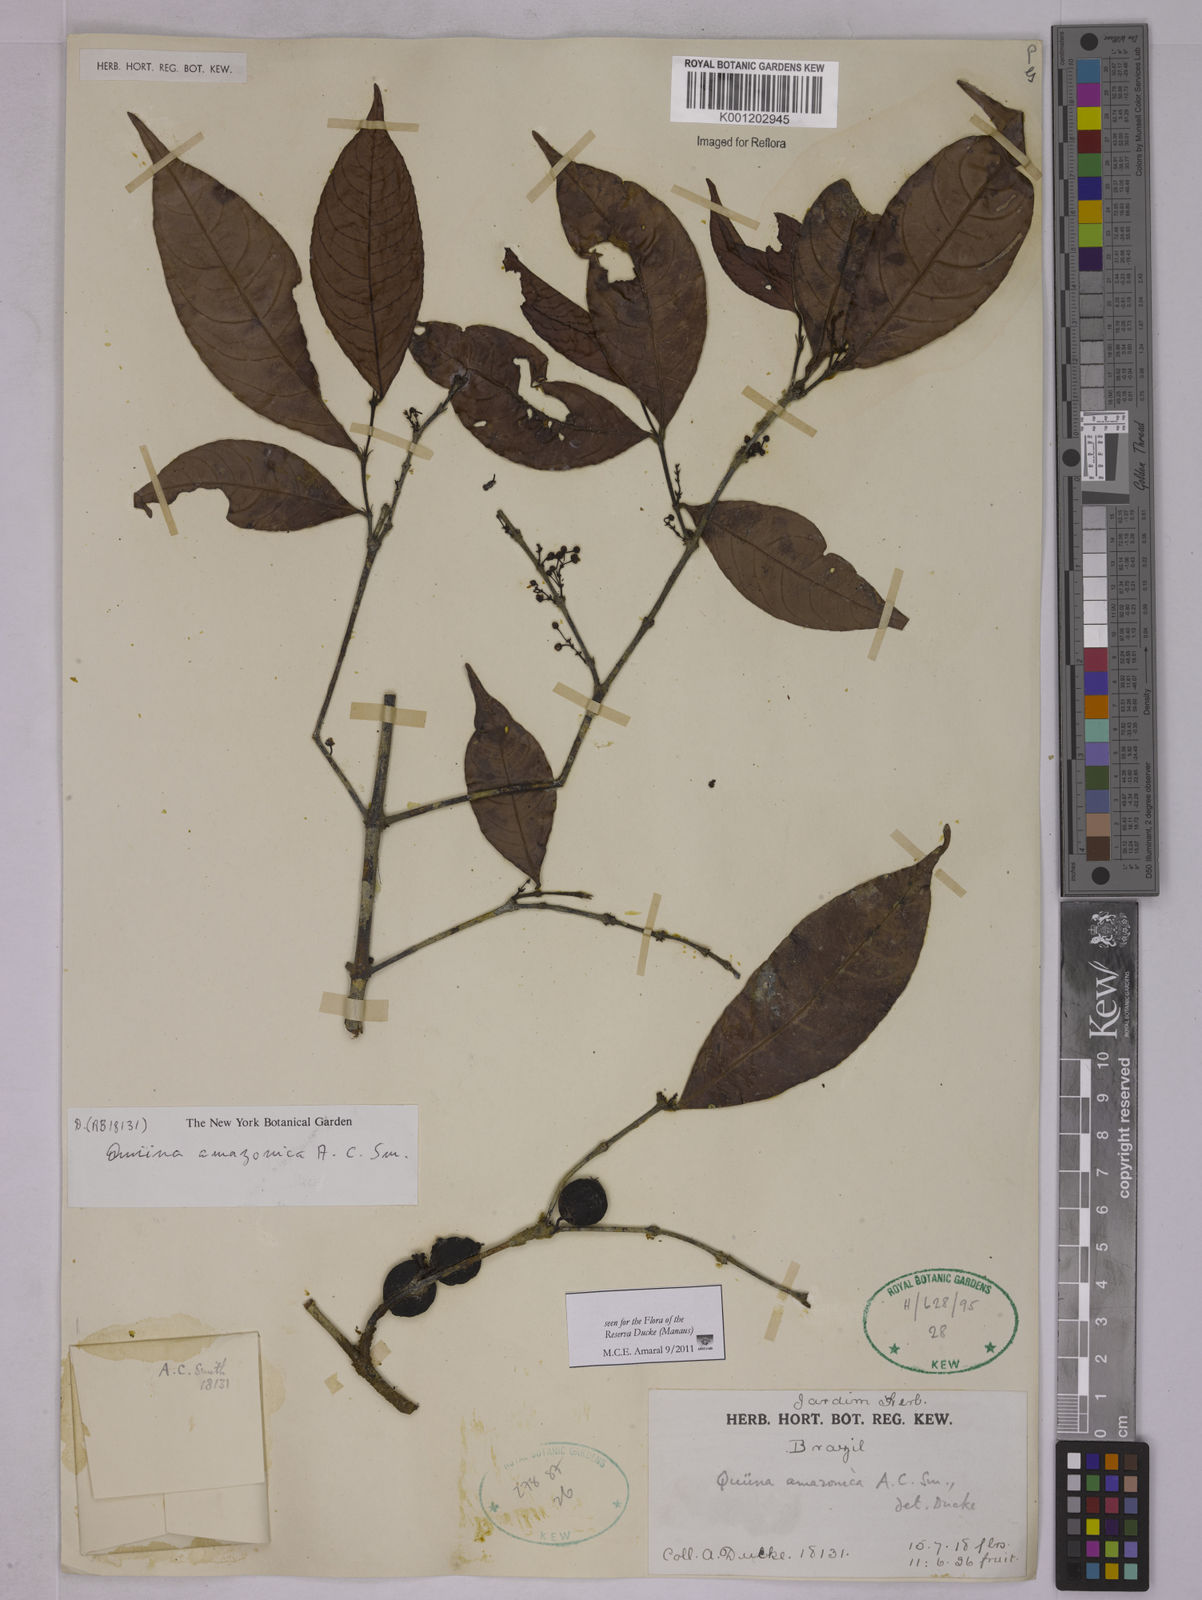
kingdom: Plantae
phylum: Tracheophyta
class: Magnoliopsida
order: Malpighiales
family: Quiinaceae
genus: Quiina
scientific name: Quiina amazonica
